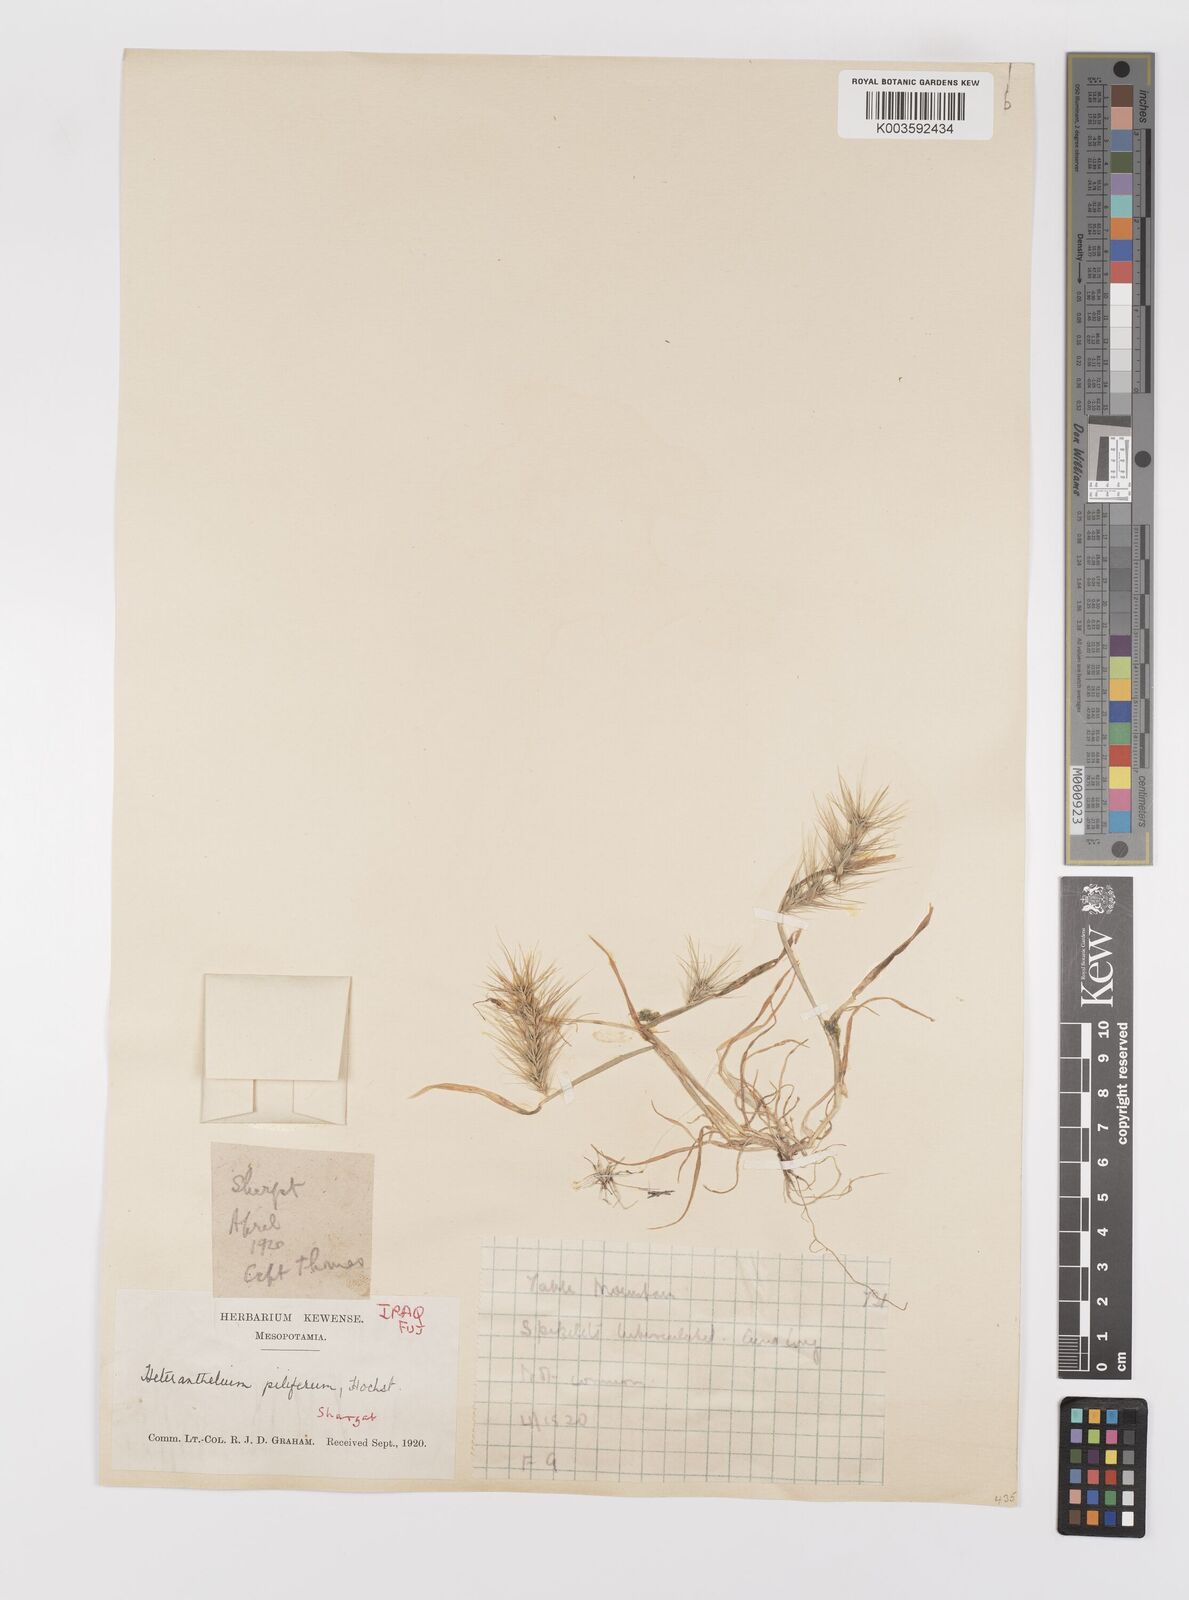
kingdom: Plantae
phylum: Tracheophyta
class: Liliopsida
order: Poales
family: Poaceae
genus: Heteranthelium
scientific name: Heteranthelium piliferum
